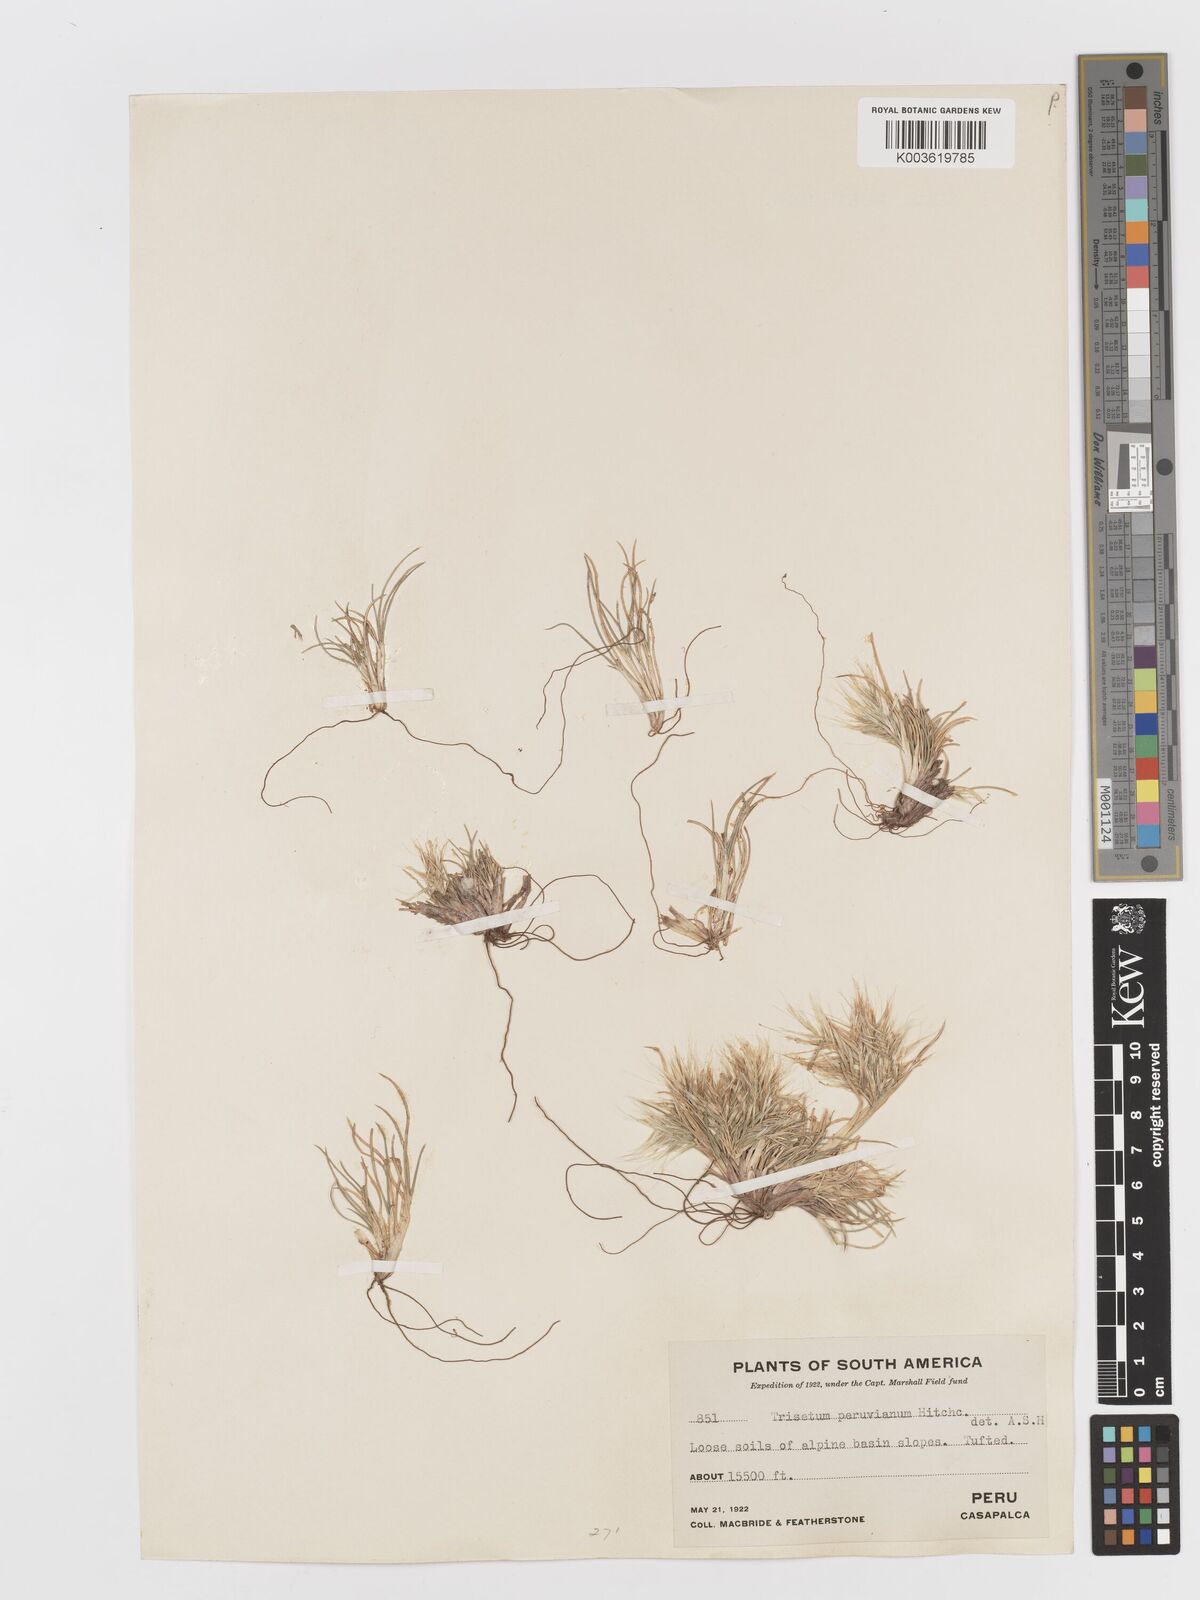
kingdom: Plantae
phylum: Tracheophyta
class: Liliopsida
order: Poales
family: Poaceae
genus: Festuca
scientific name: Festuca floribunda
